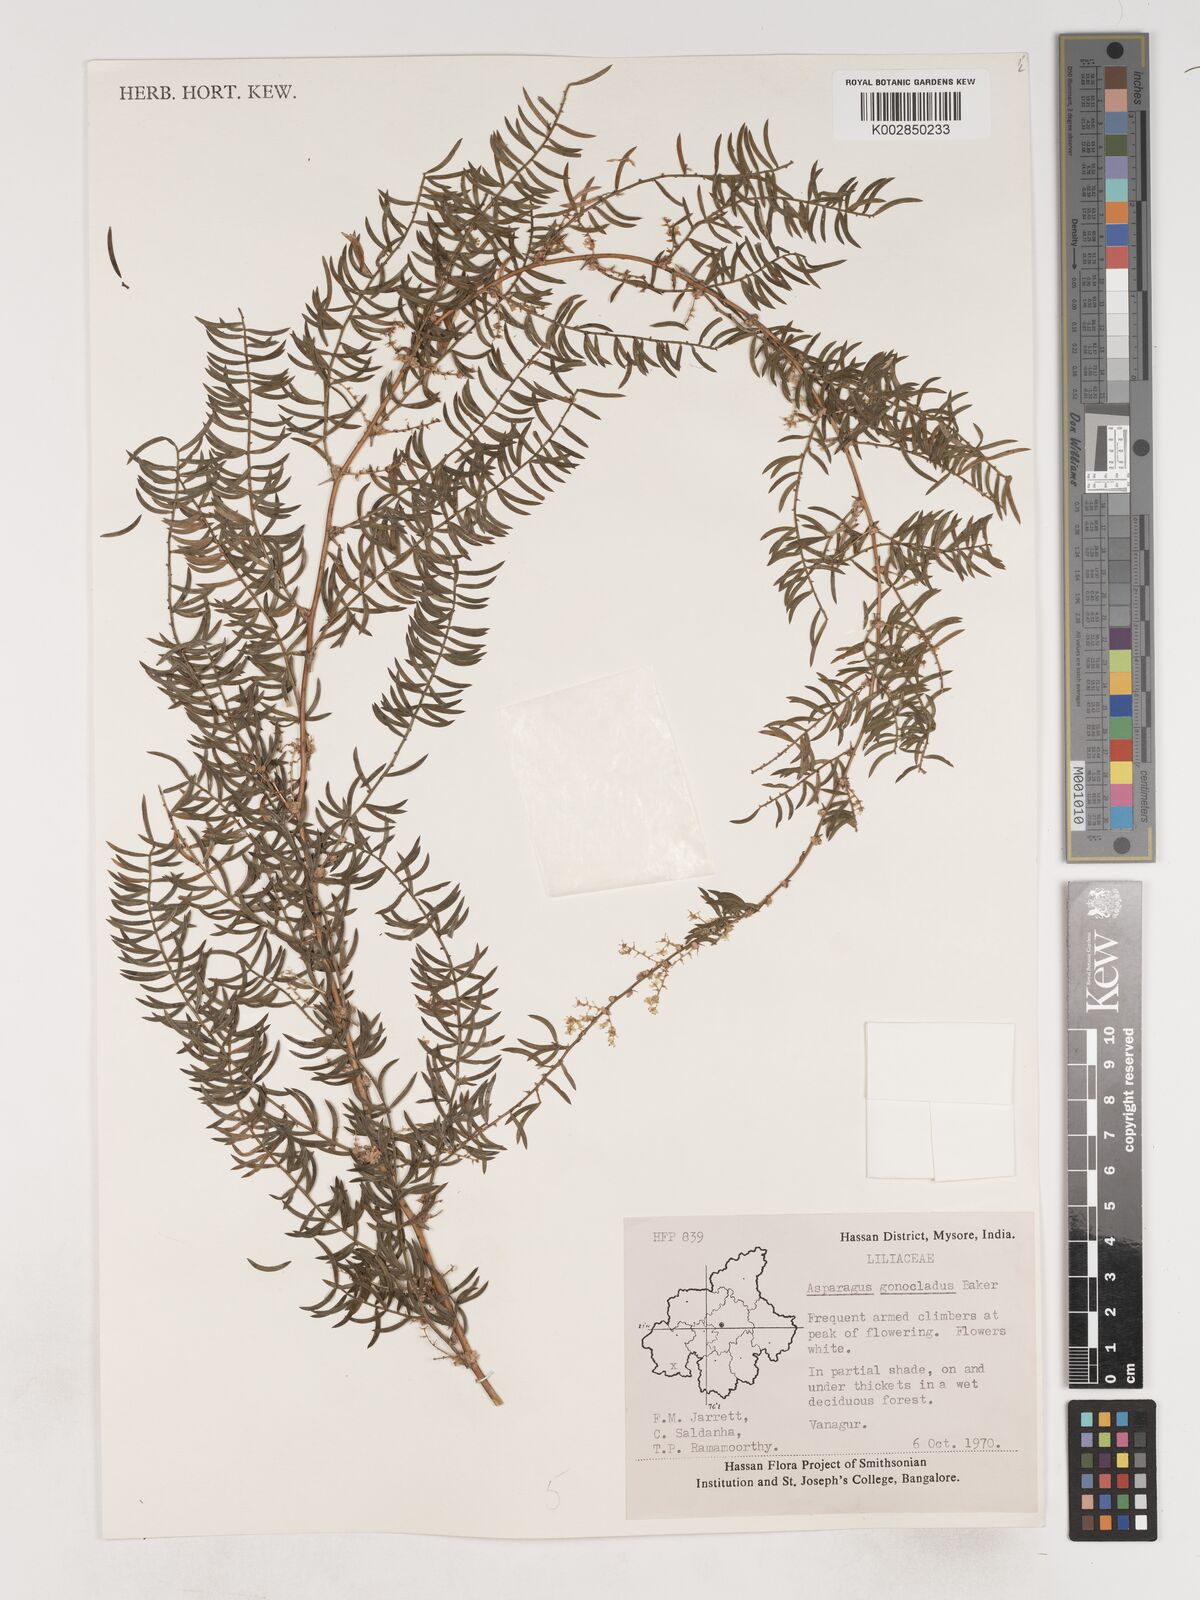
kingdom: Plantae
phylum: Tracheophyta
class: Liliopsida
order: Asparagales
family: Asparagaceae
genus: Asparagus
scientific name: Asparagus gonoclados
